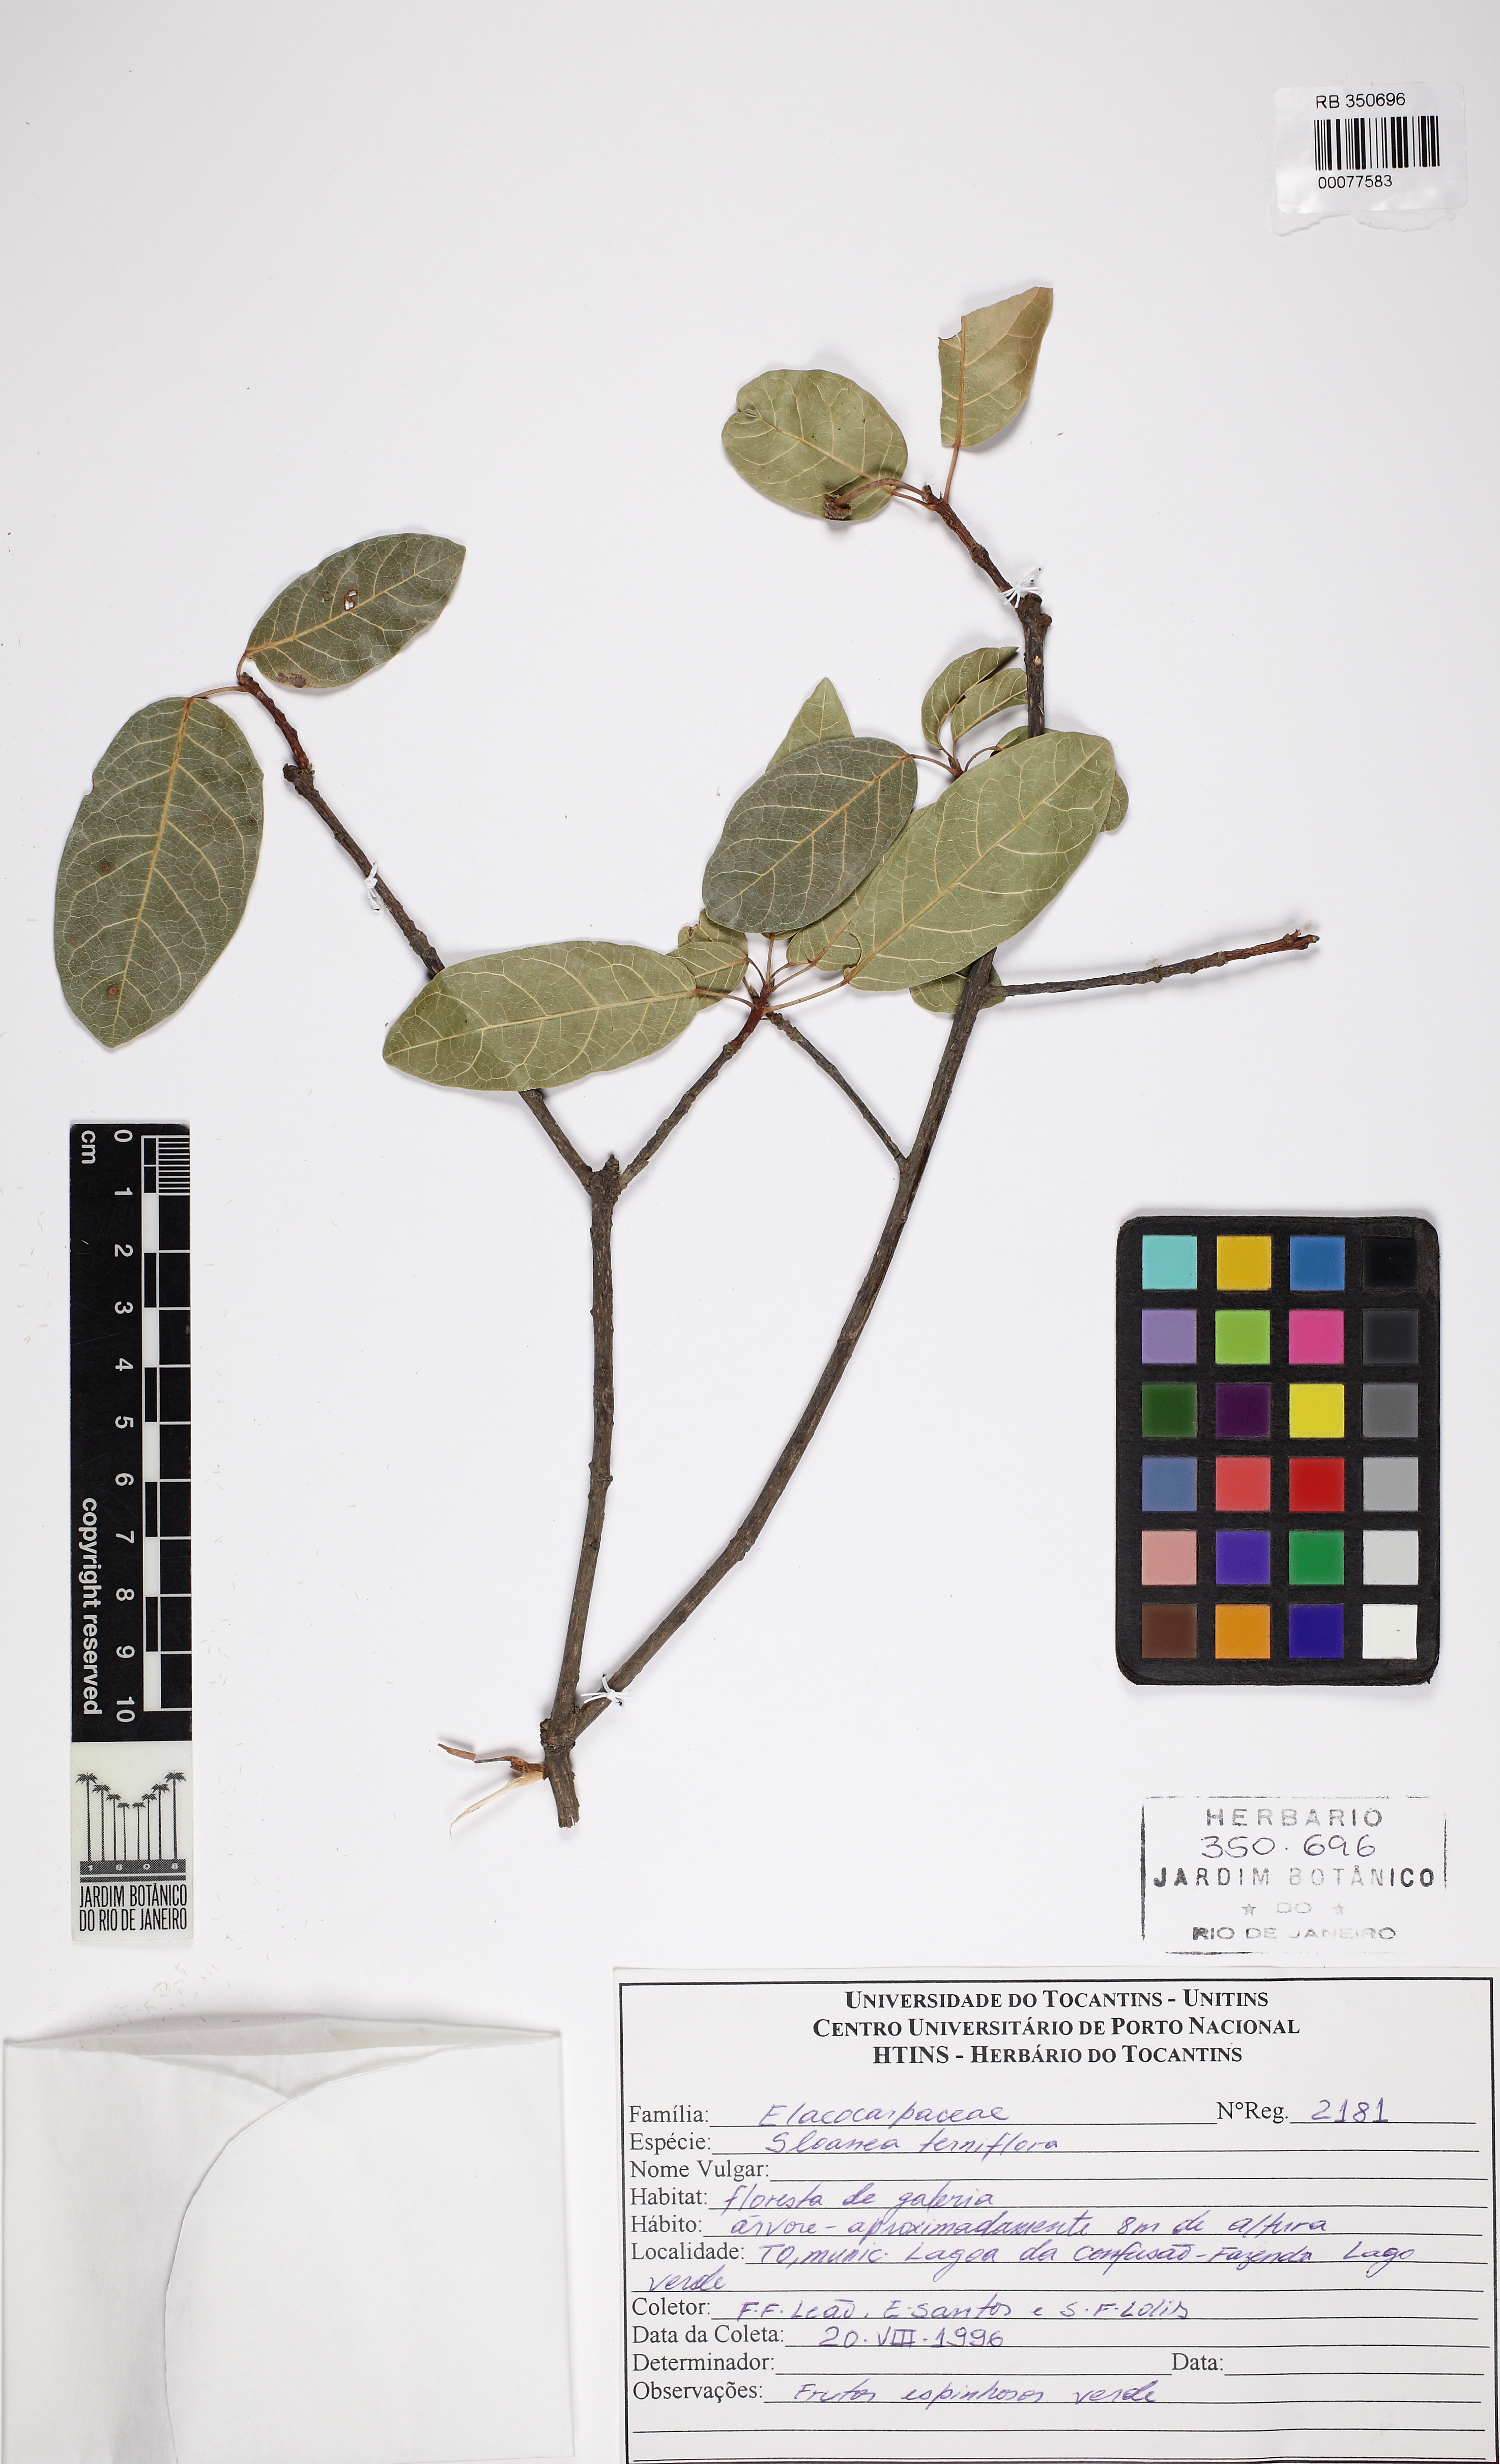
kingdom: Plantae
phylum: Tracheophyta
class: Magnoliopsida
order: Oxalidales
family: Elaeocarpaceae
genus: Sloanea
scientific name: Sloanea terniflora
